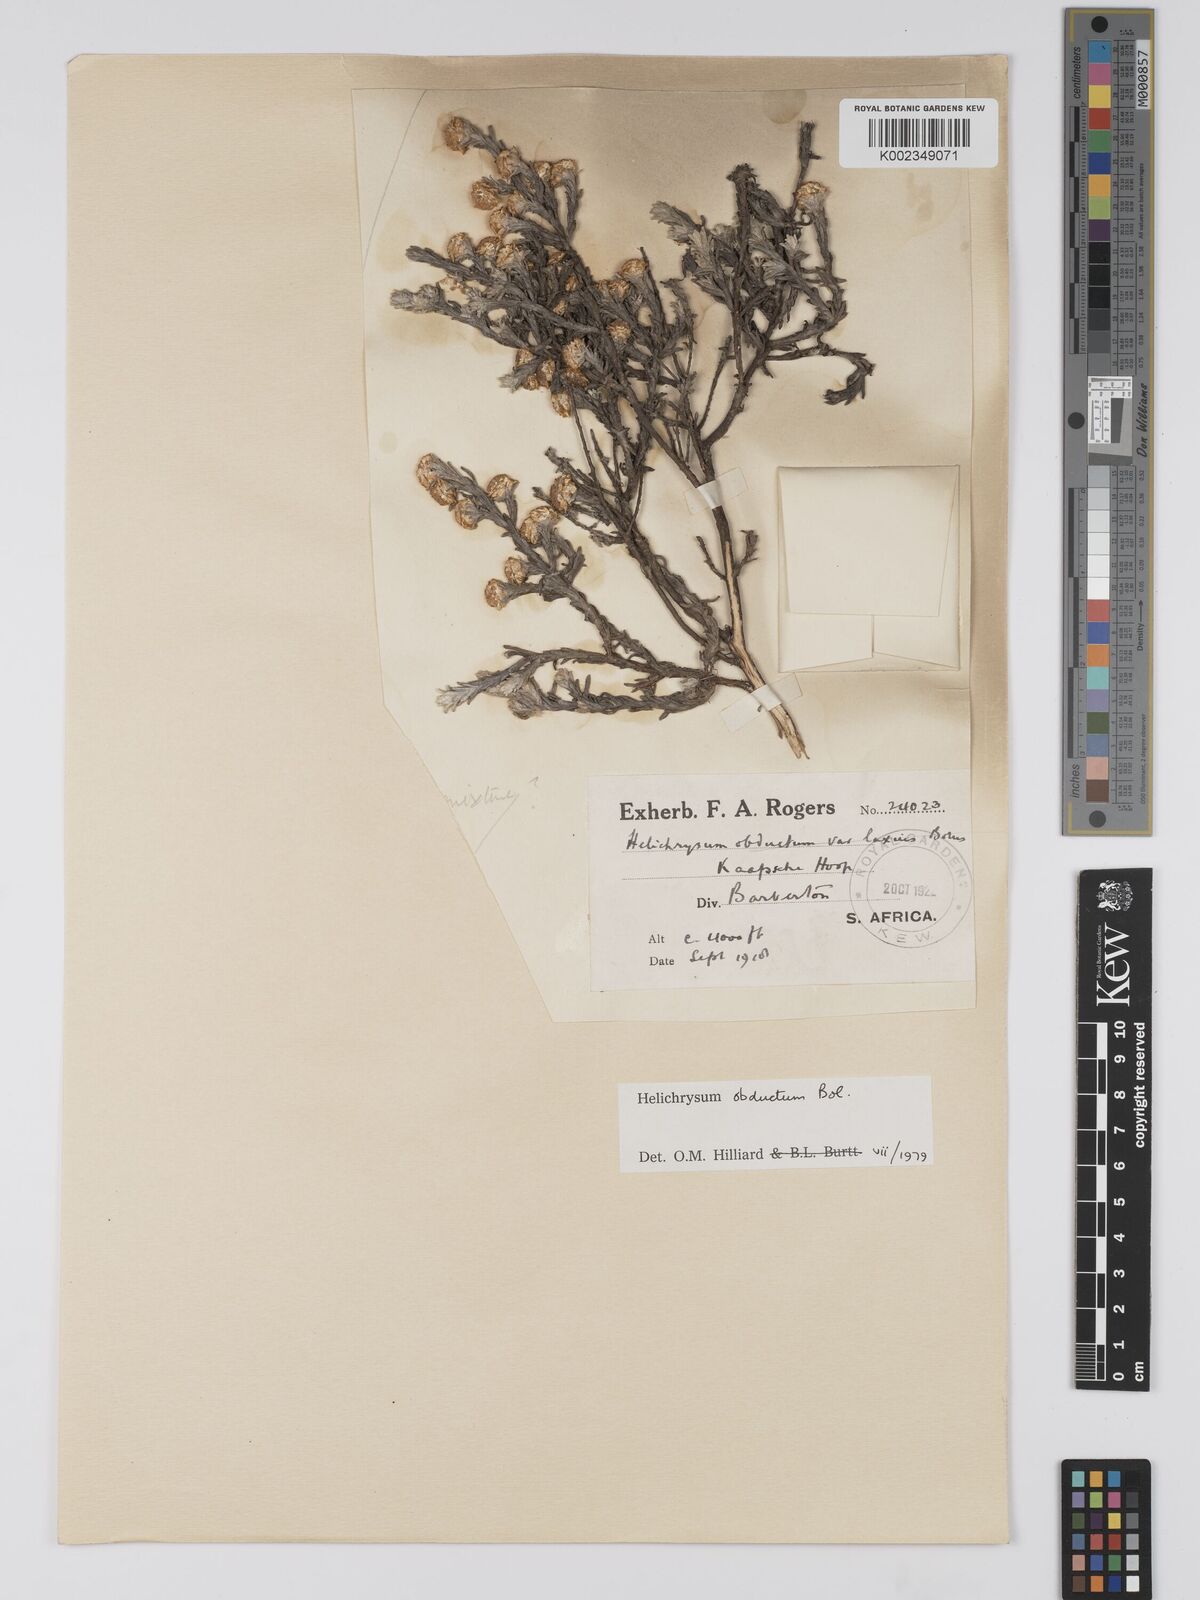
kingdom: Plantae
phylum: Tracheophyta
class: Magnoliopsida
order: Asterales
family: Asteraceae
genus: Helichrysum
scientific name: Helichrysum obductum
